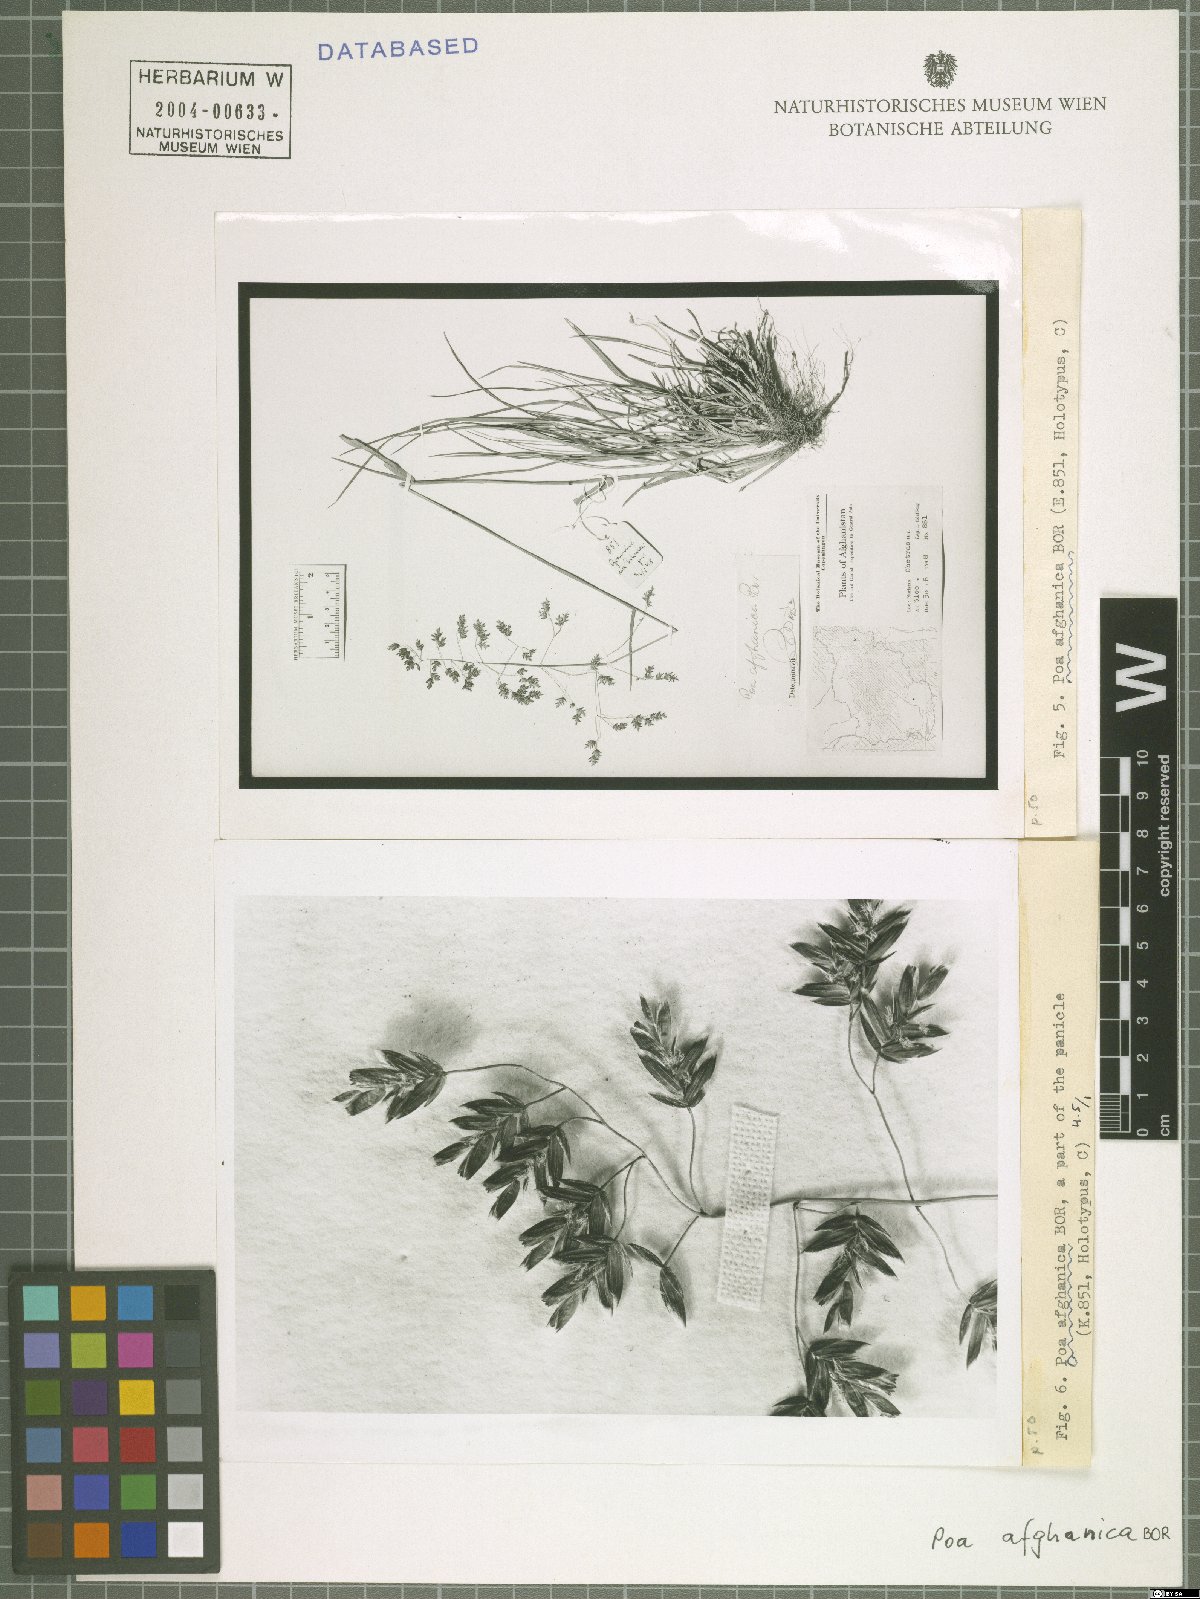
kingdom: Plantae
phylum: Tracheophyta
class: Liliopsida
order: Poales
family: Poaceae
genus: Poa
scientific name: Poa afghanica
